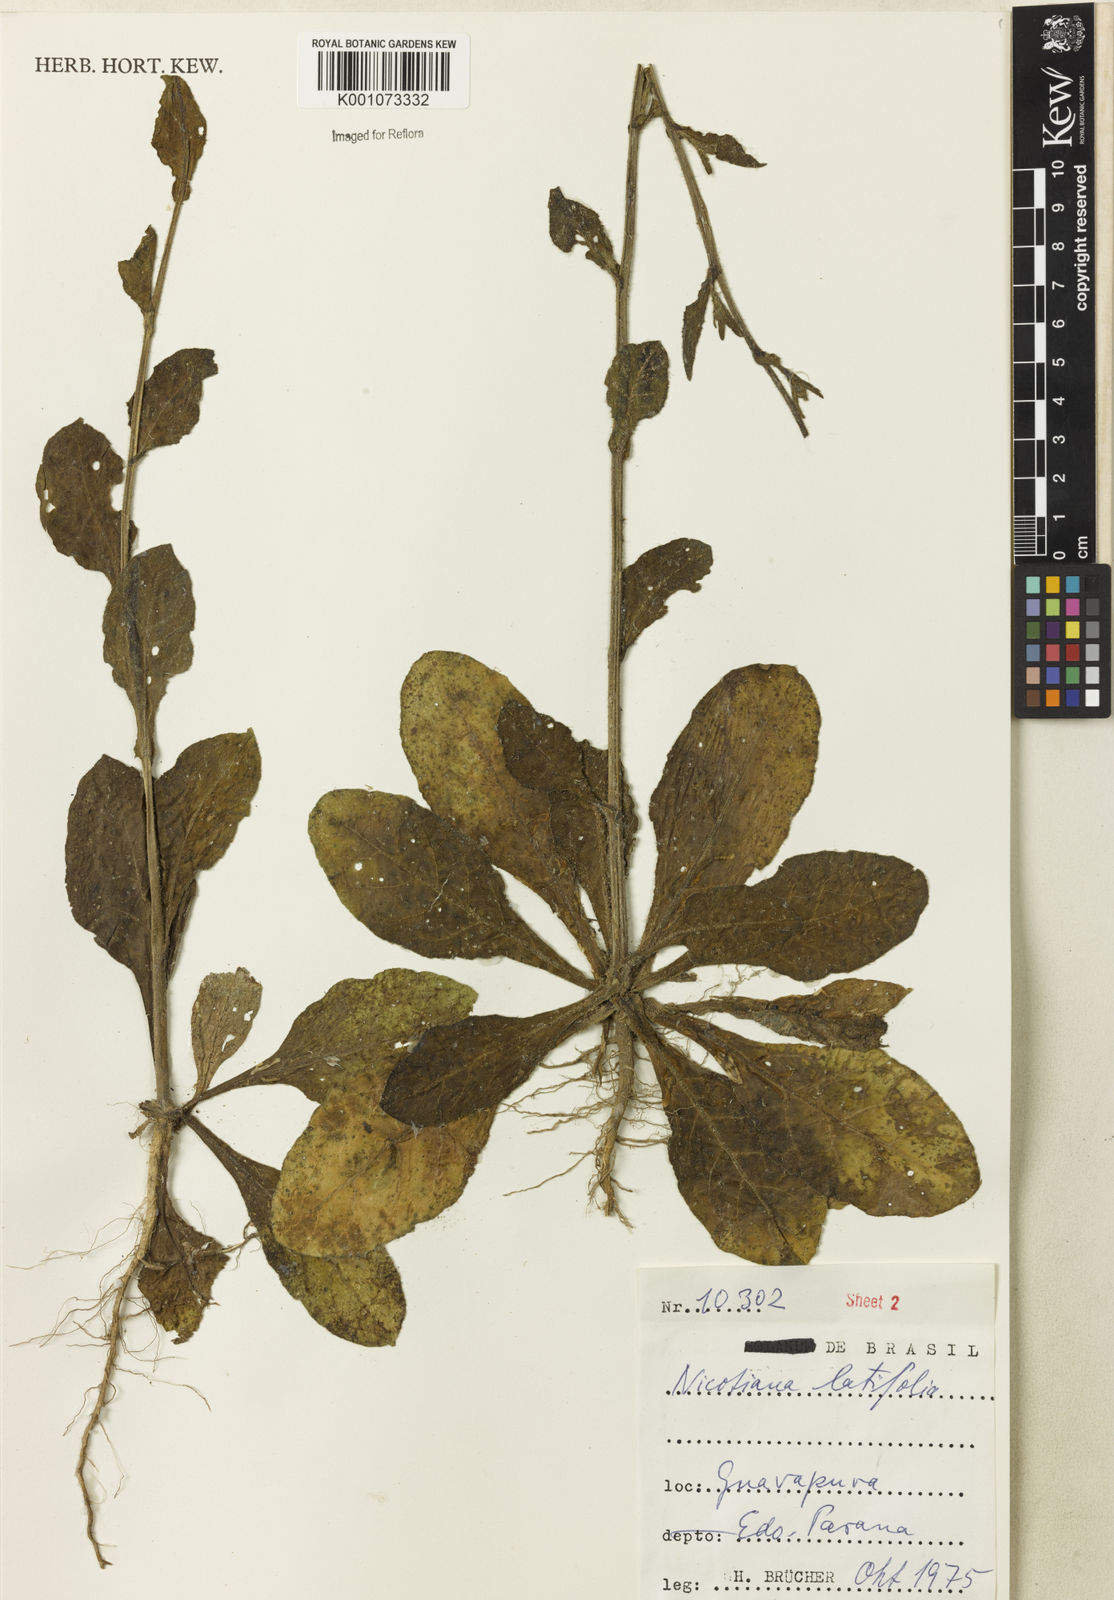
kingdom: Plantae
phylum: Tracheophyta
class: Magnoliopsida
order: Solanales
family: Solanaceae
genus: Nicotiana
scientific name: Nicotiana
